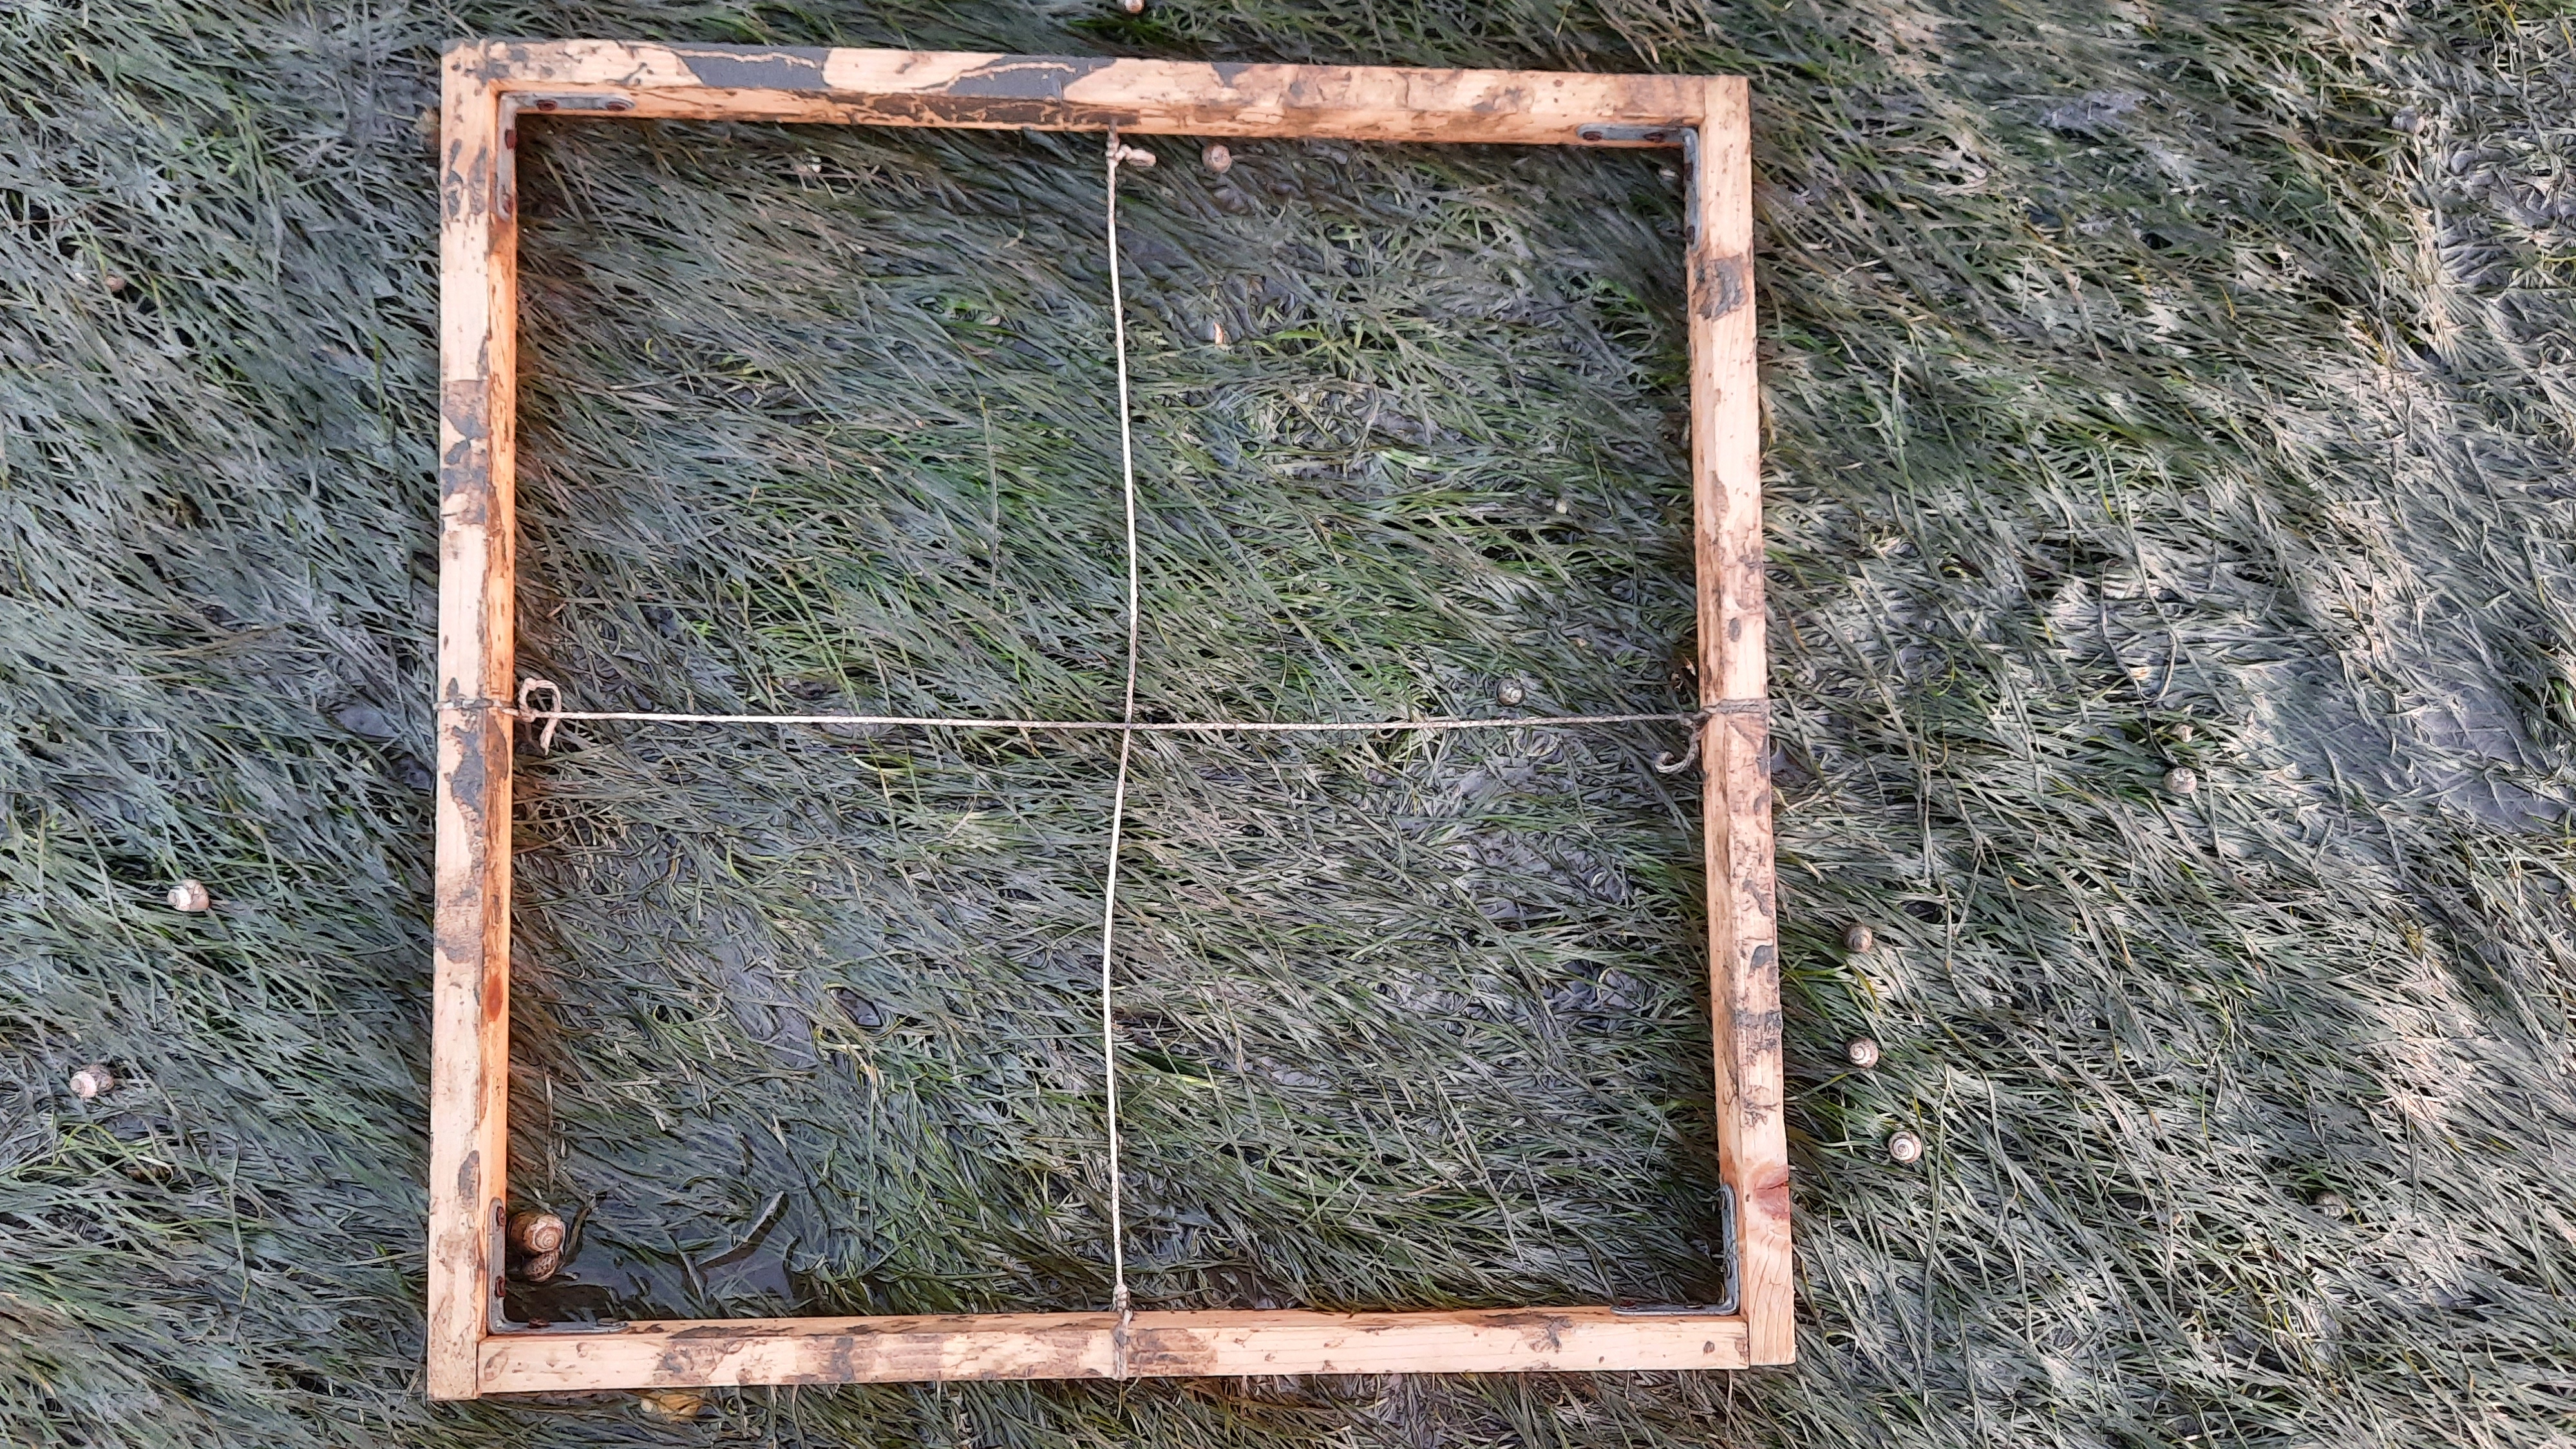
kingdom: Plantae
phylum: Tracheophyta
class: Liliopsida
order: Alismatales
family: Zosteraceae
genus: Zostera
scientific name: Zostera noltii
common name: Dwarf eelgrass
